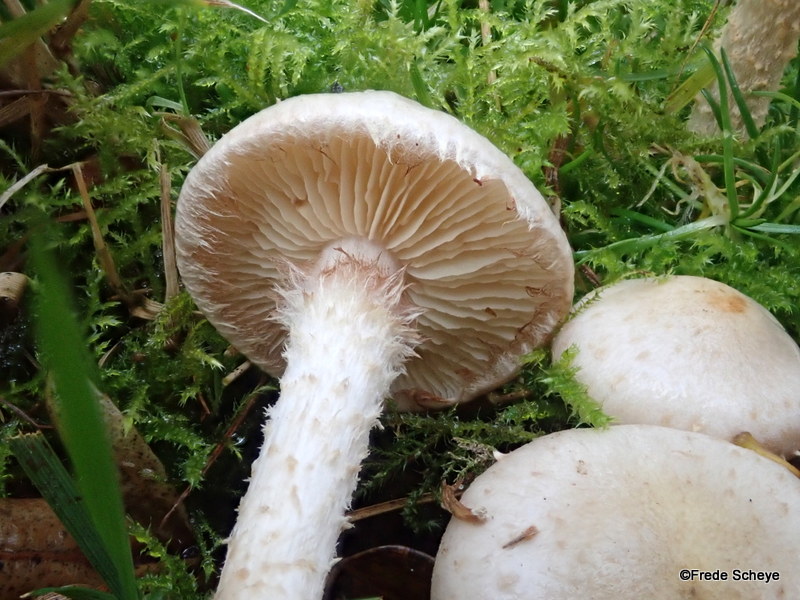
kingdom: Fungi
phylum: Basidiomycota
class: Agaricomycetes
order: Agaricales
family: Strophariaceae
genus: Pholiota
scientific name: Pholiota gummosa
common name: grøngul skælhat
